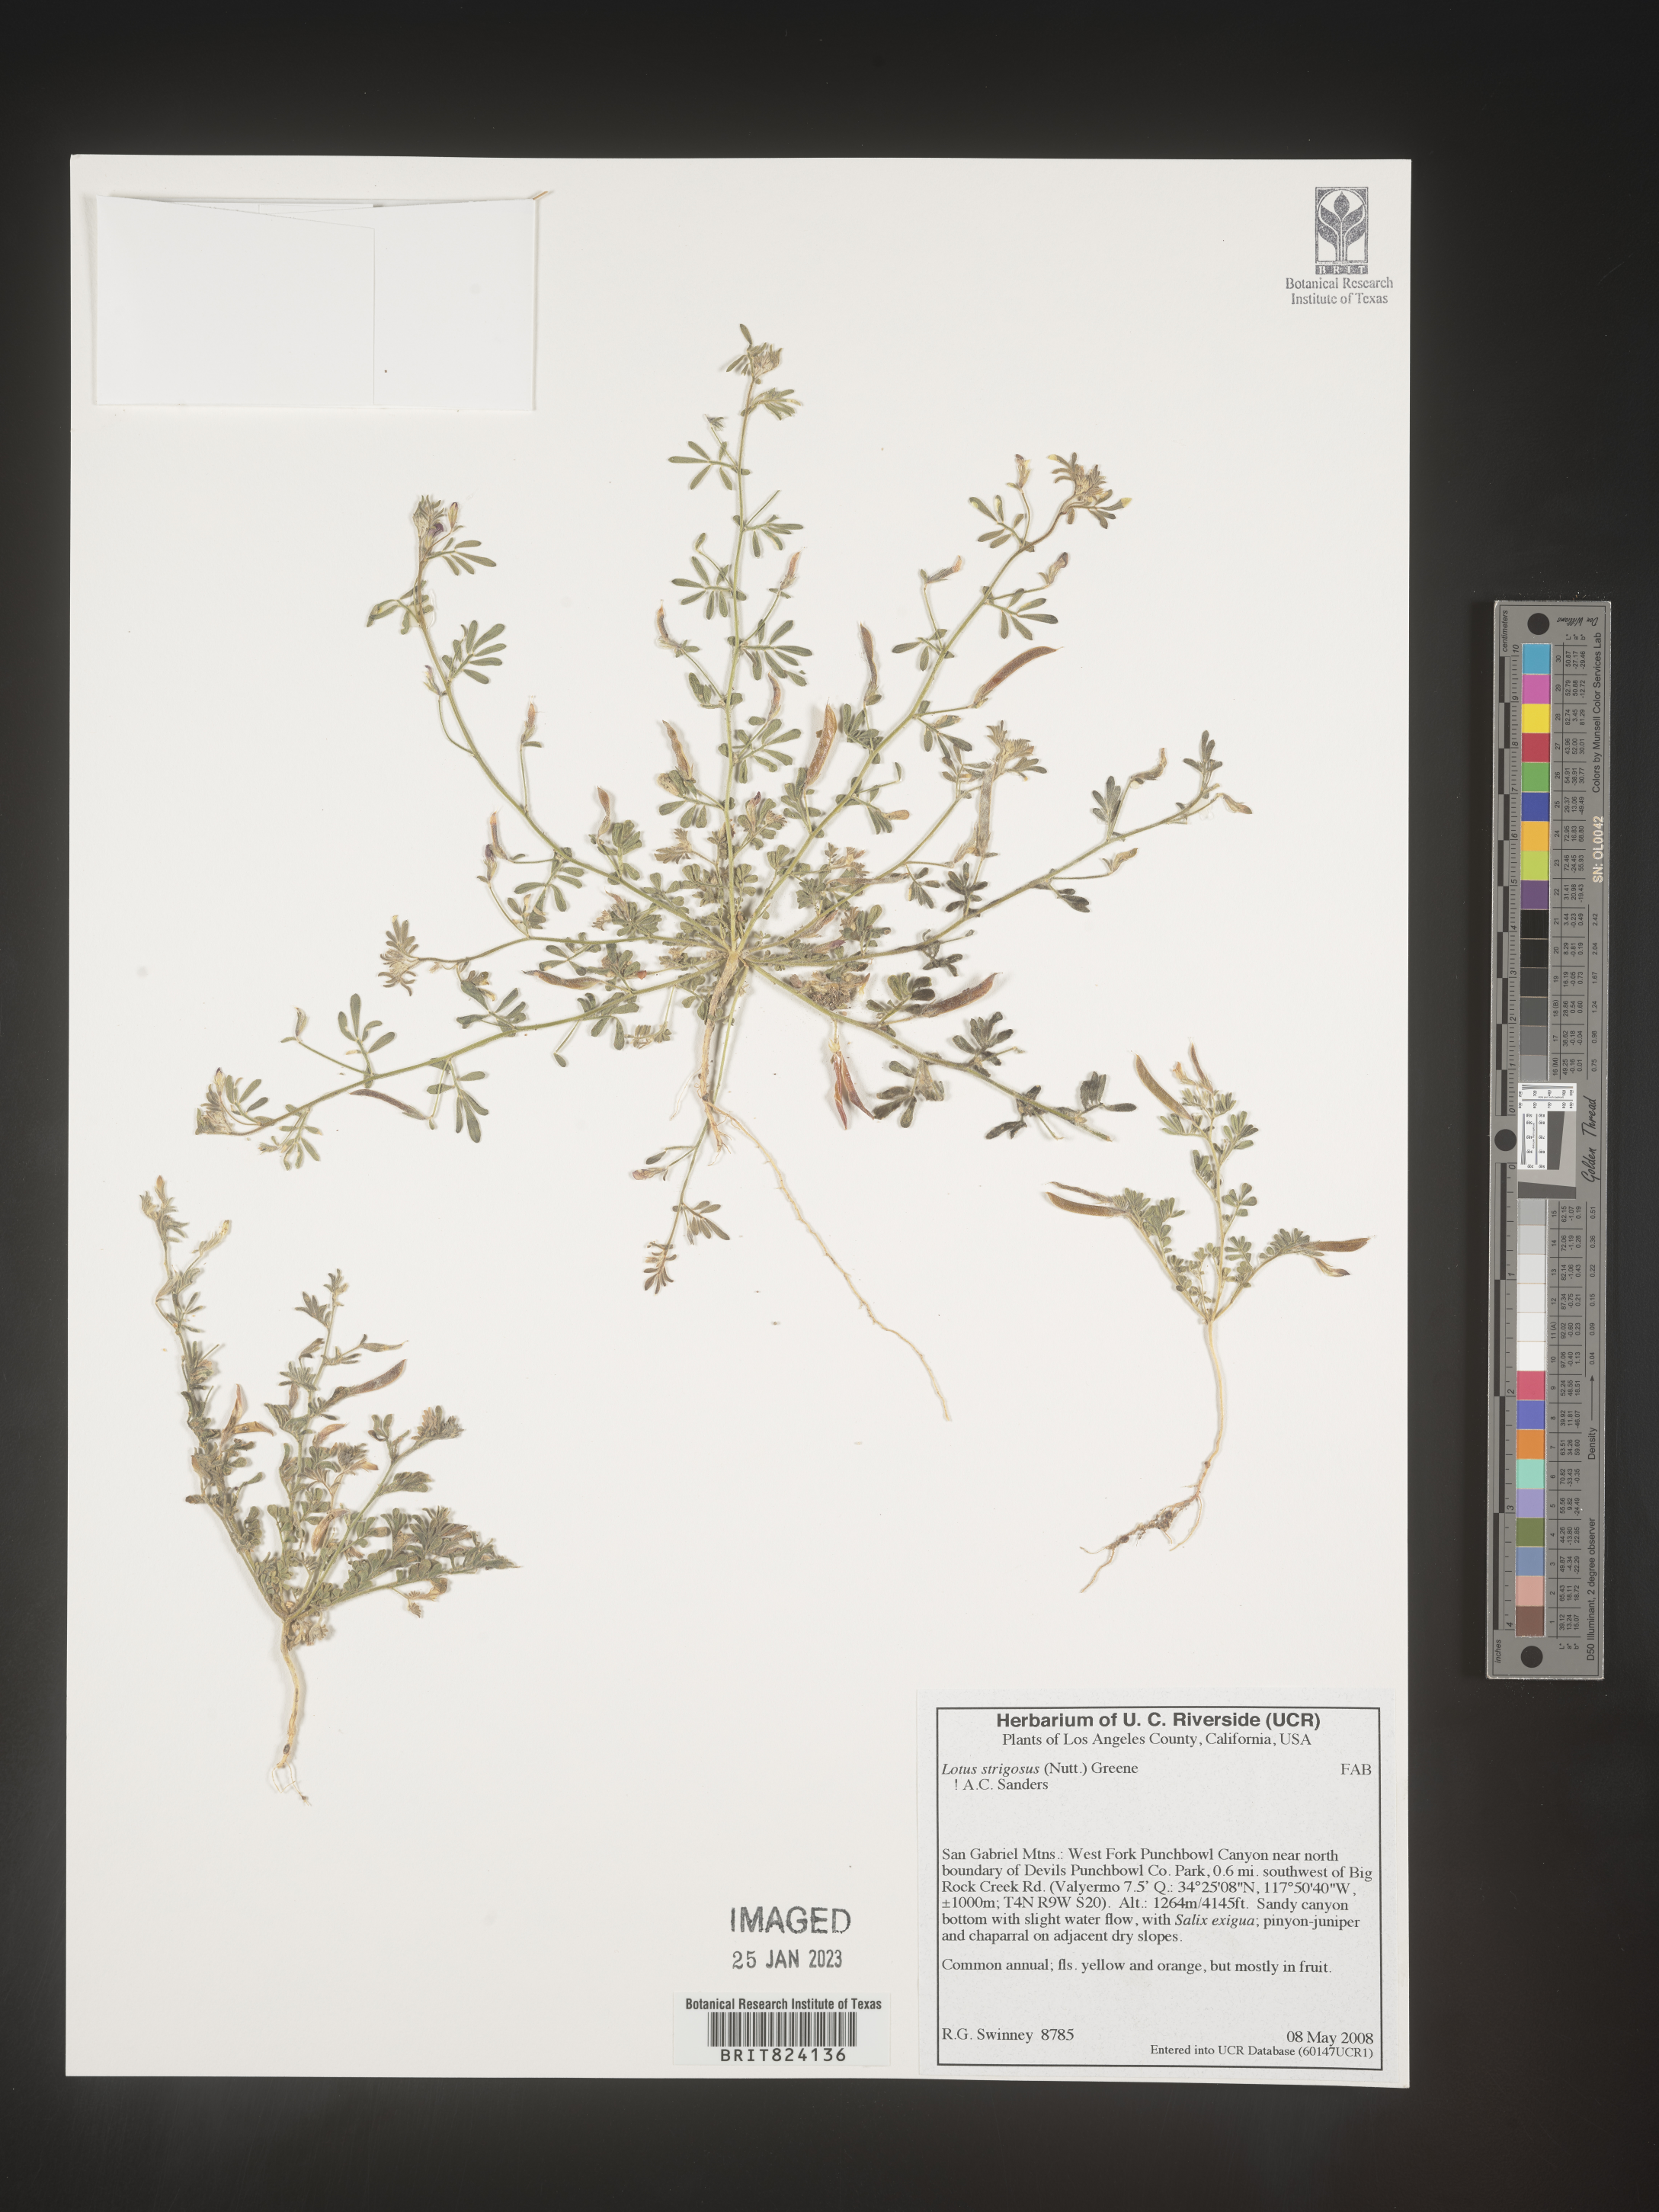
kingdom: Plantae
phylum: Tracheophyta
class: Magnoliopsida
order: Fabales
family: Fabaceae
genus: Lotus
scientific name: Lotus
